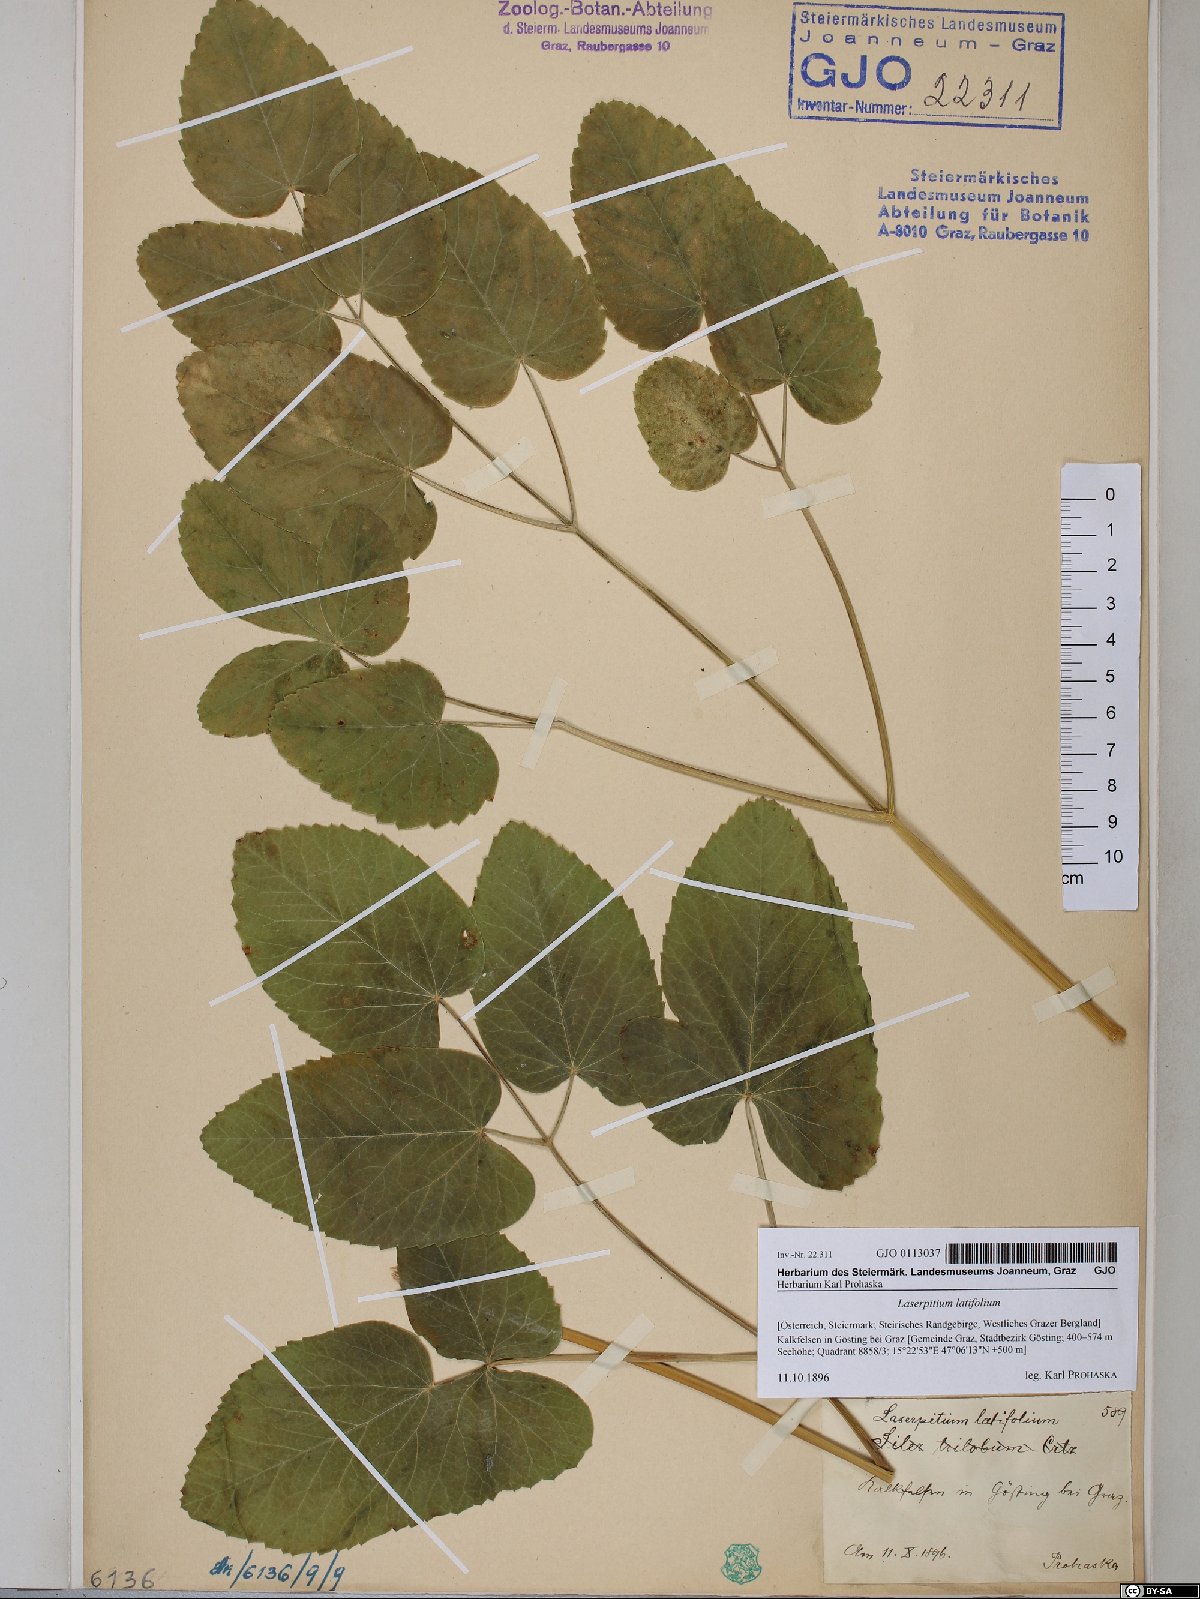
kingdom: Plantae
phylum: Tracheophyta
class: Magnoliopsida
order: Apiales
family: Apiaceae
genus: Laserpitium
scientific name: Laserpitium latifolium
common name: Broadleaf sermountain
